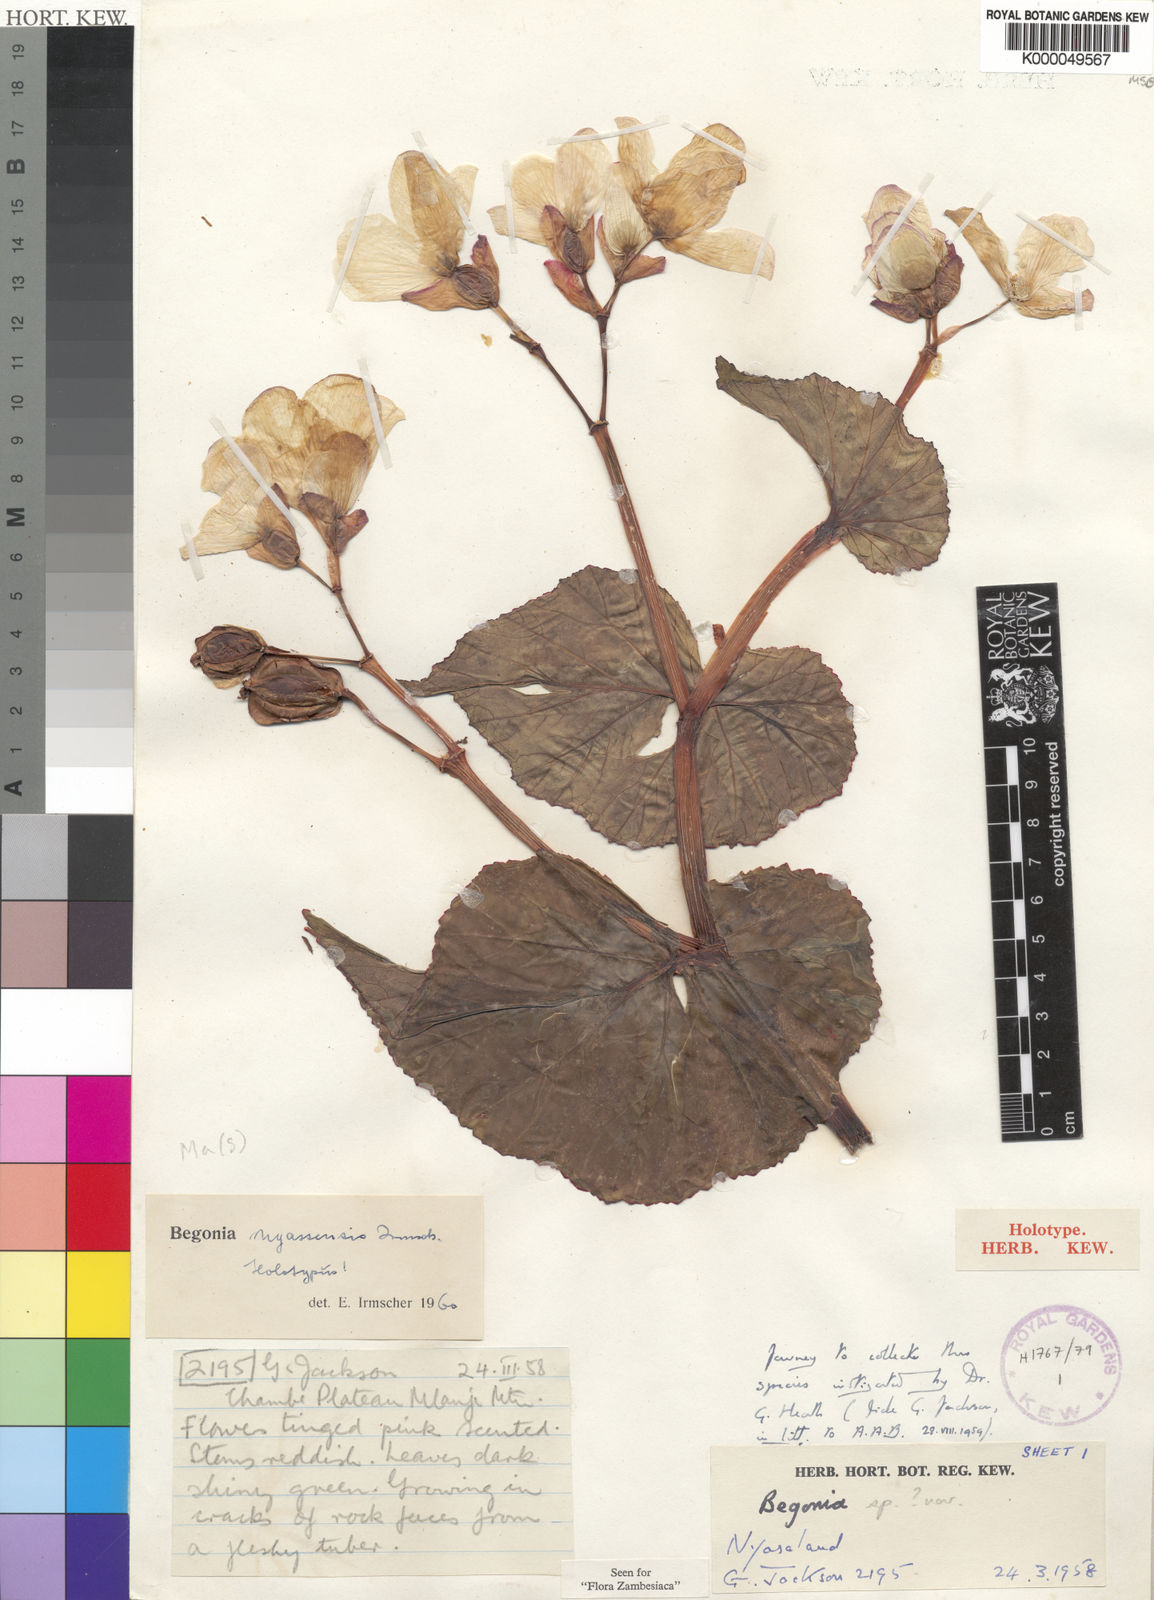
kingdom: Plantae
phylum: Tracheophyta
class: Magnoliopsida
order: Cucurbitales
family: Begoniaceae
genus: Begonia
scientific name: Begonia nyassensis
